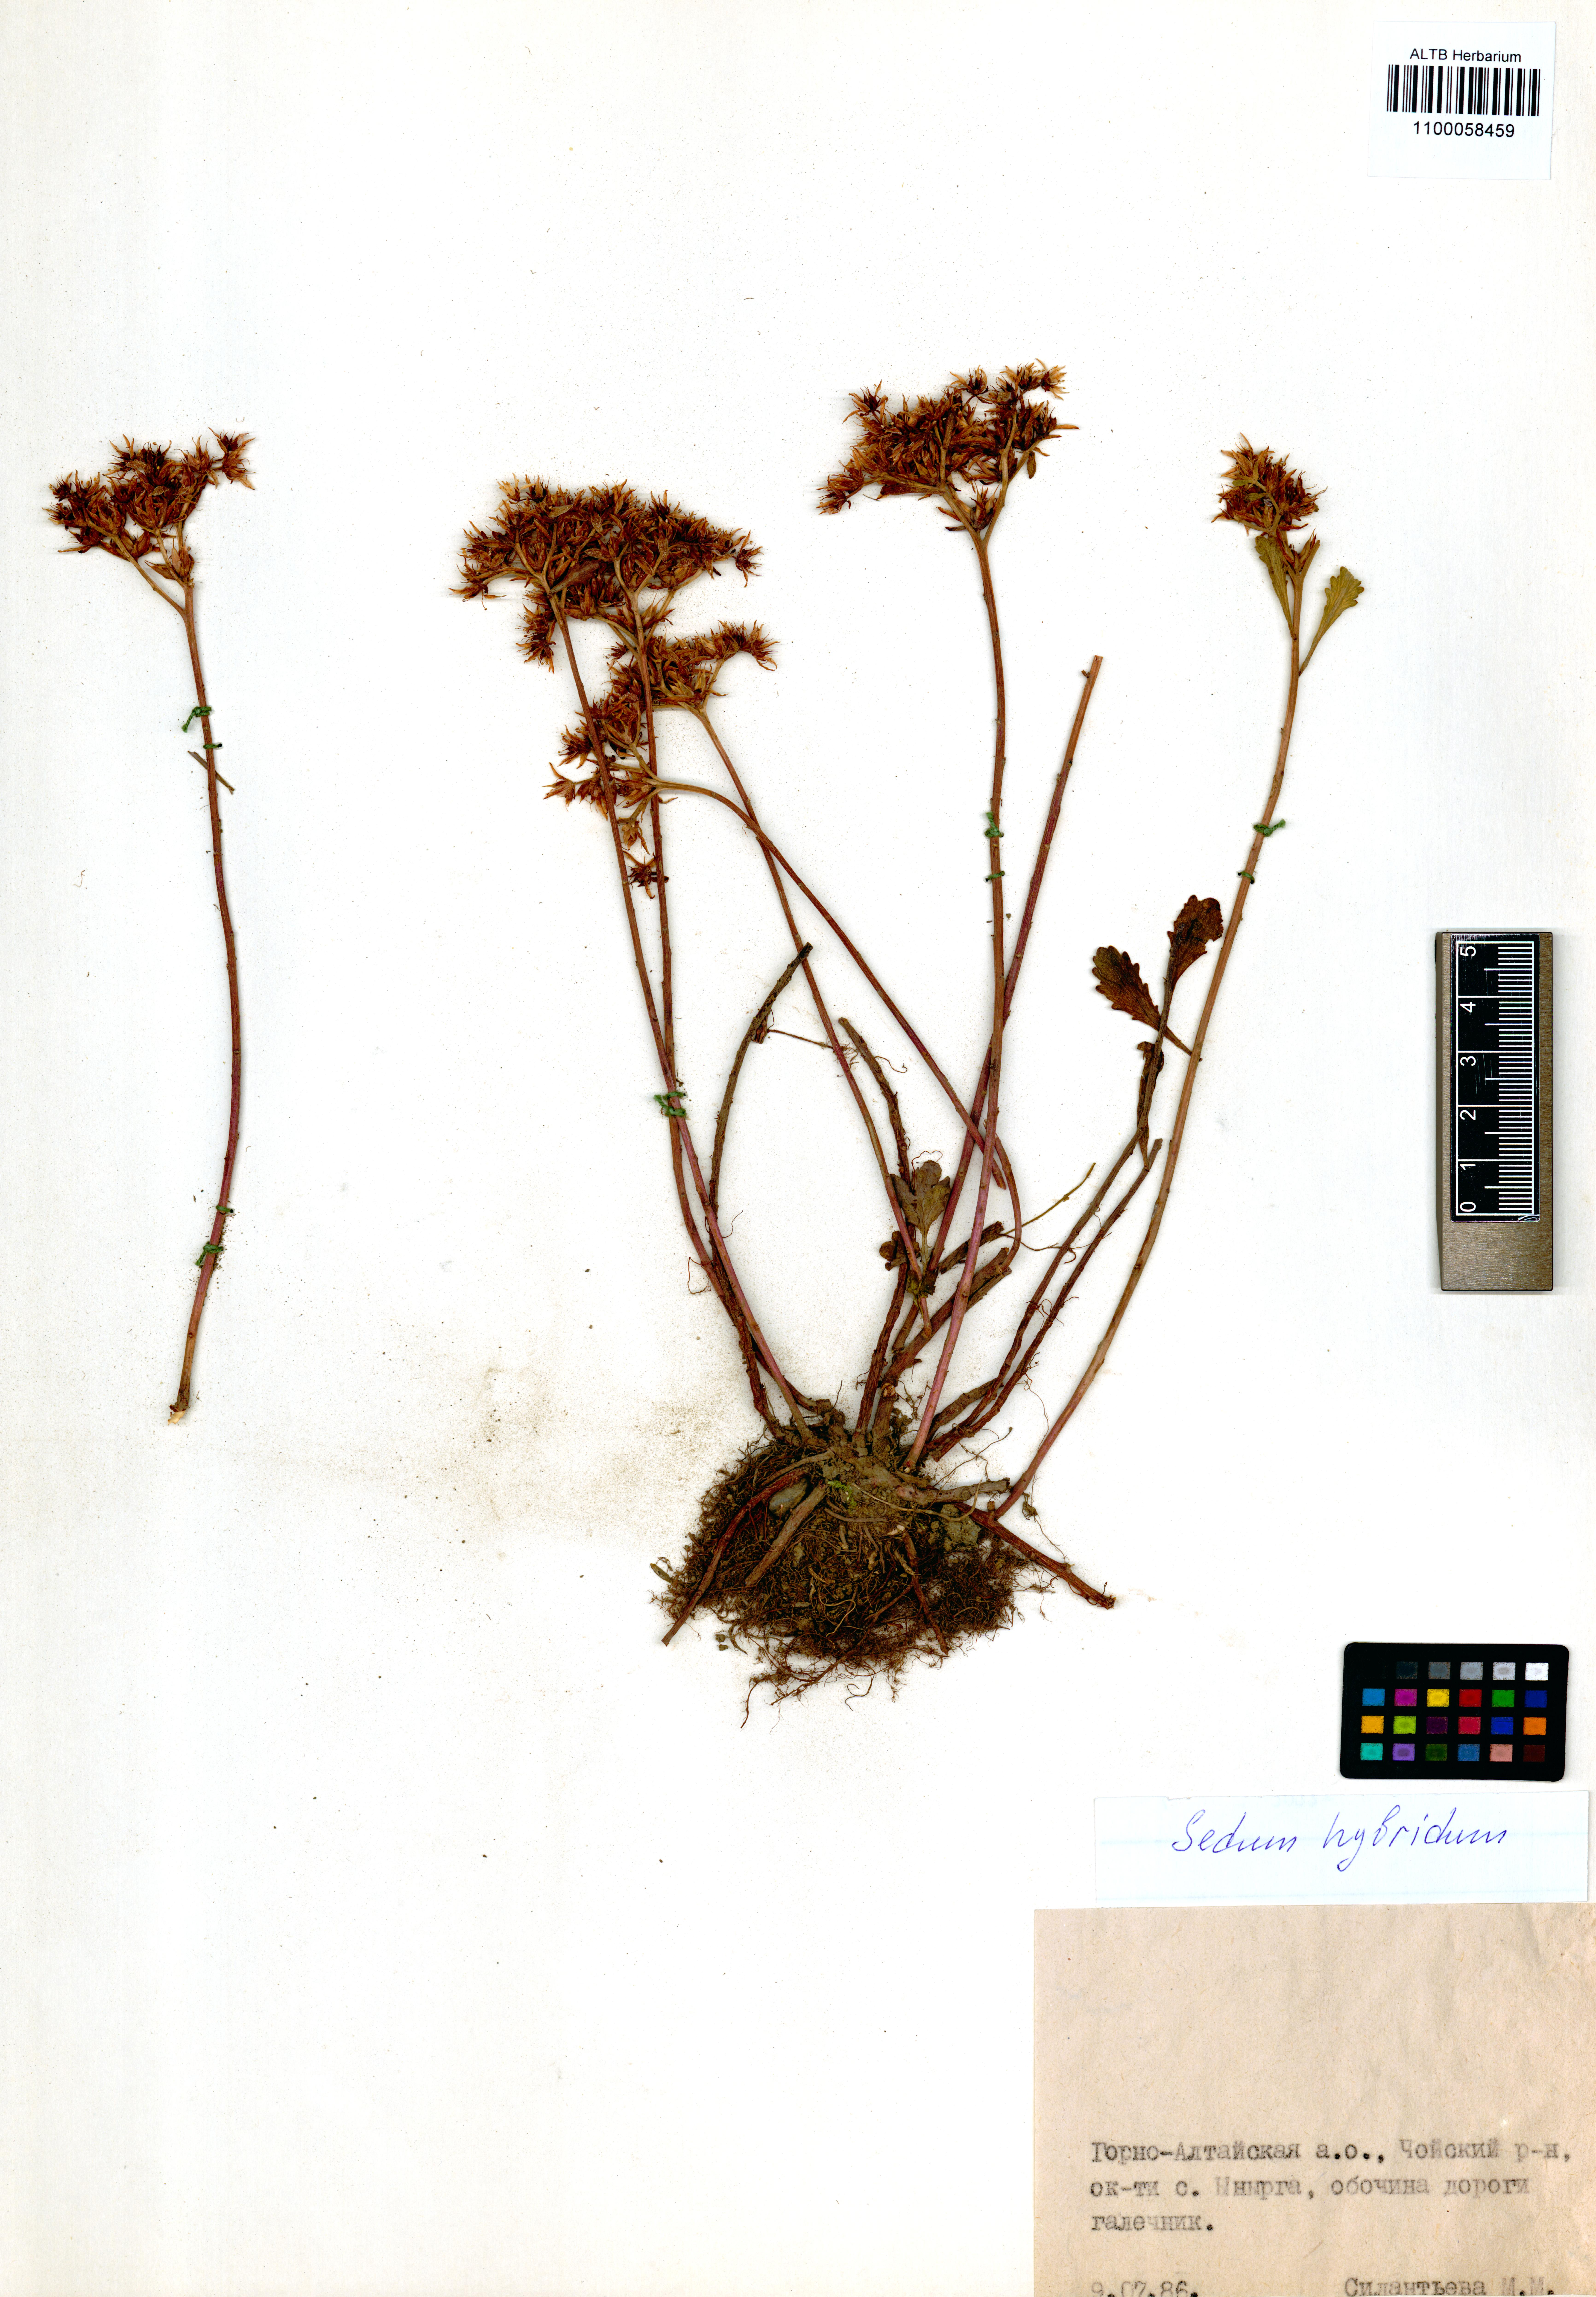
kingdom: Plantae
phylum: Tracheophyta
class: Magnoliopsida
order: Saxifragales
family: Crassulaceae
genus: Phedimus
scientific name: Phedimus hybridus
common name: Hybrid stonecrop
